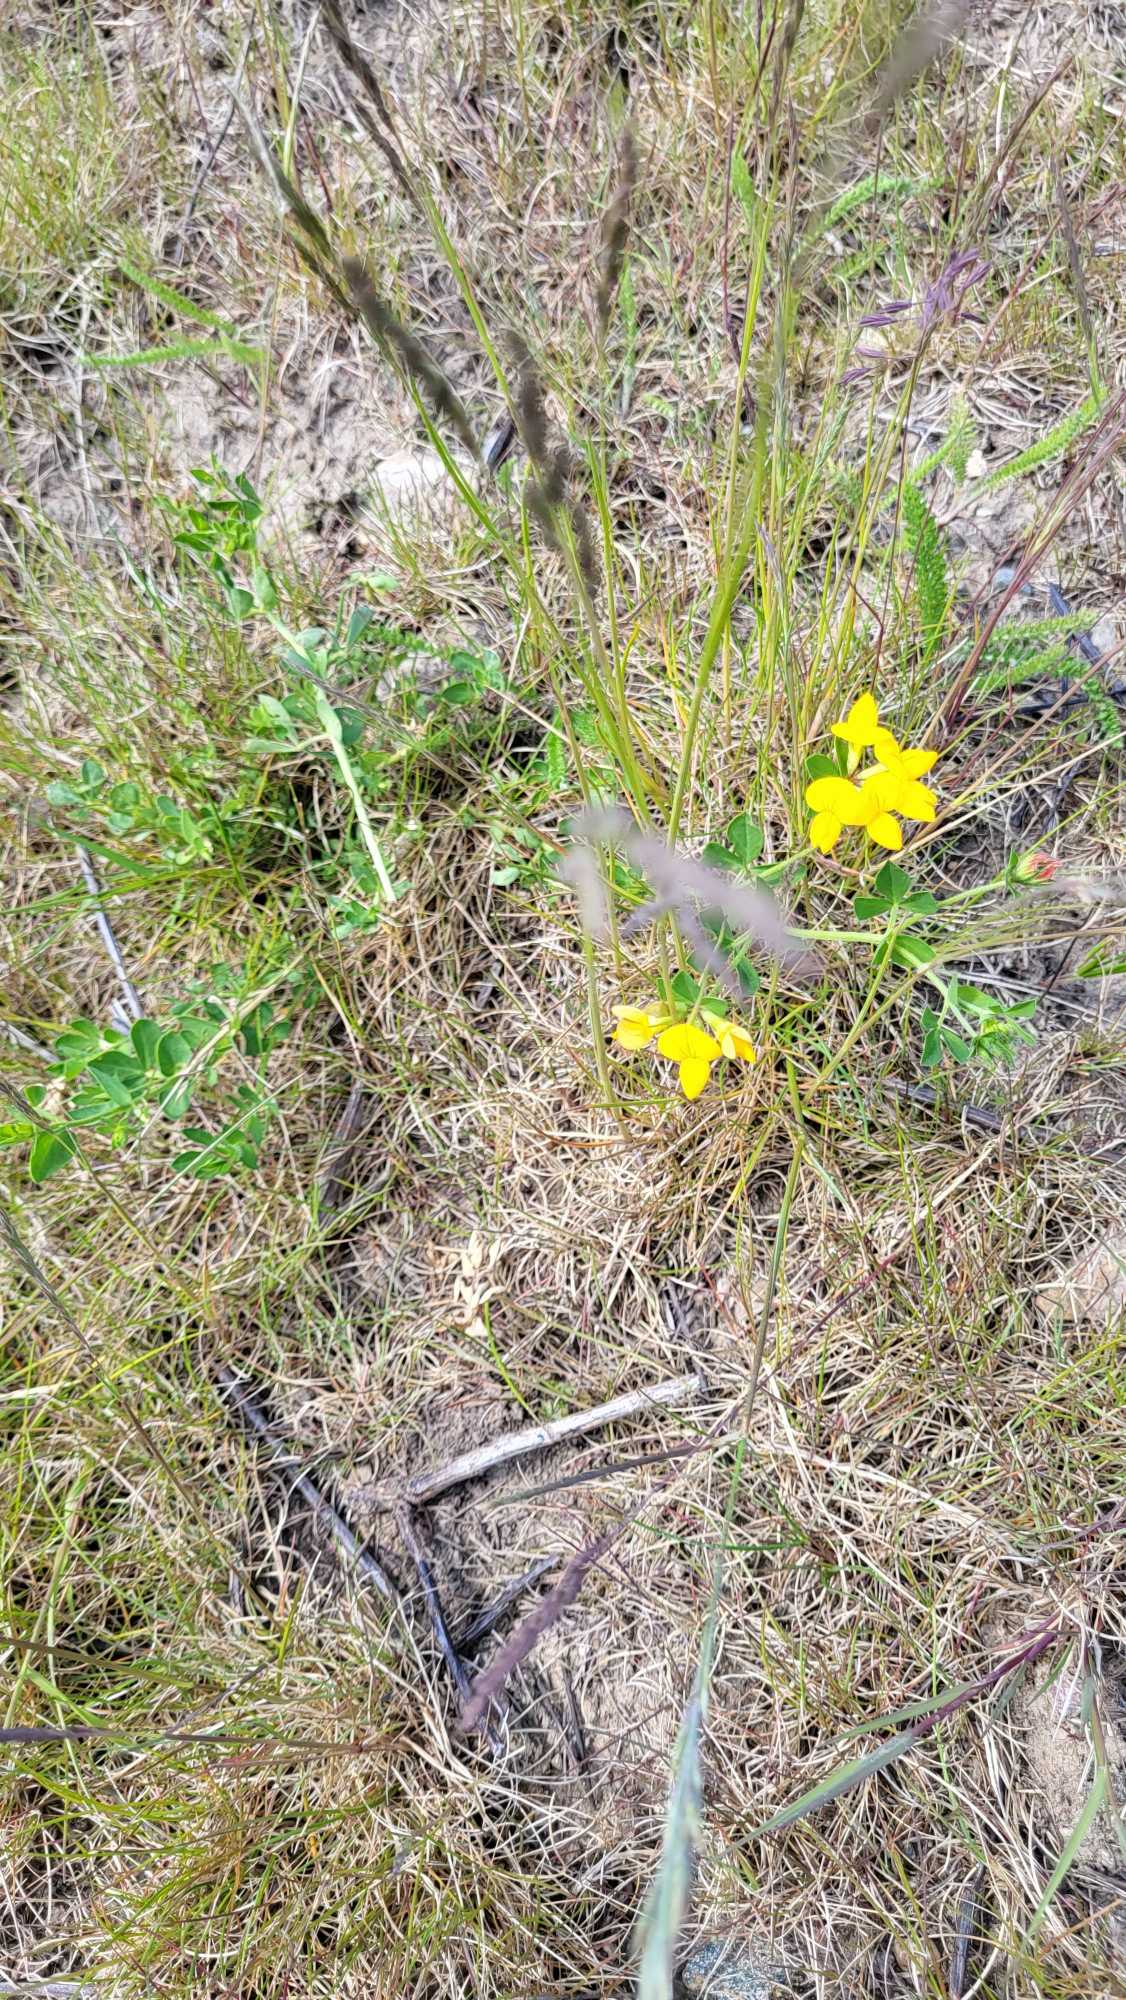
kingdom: Plantae
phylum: Tracheophyta
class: Magnoliopsida
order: Fabales
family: Fabaceae
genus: Lotus
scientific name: Lotus corniculatus
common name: Almindelig kællingetand
